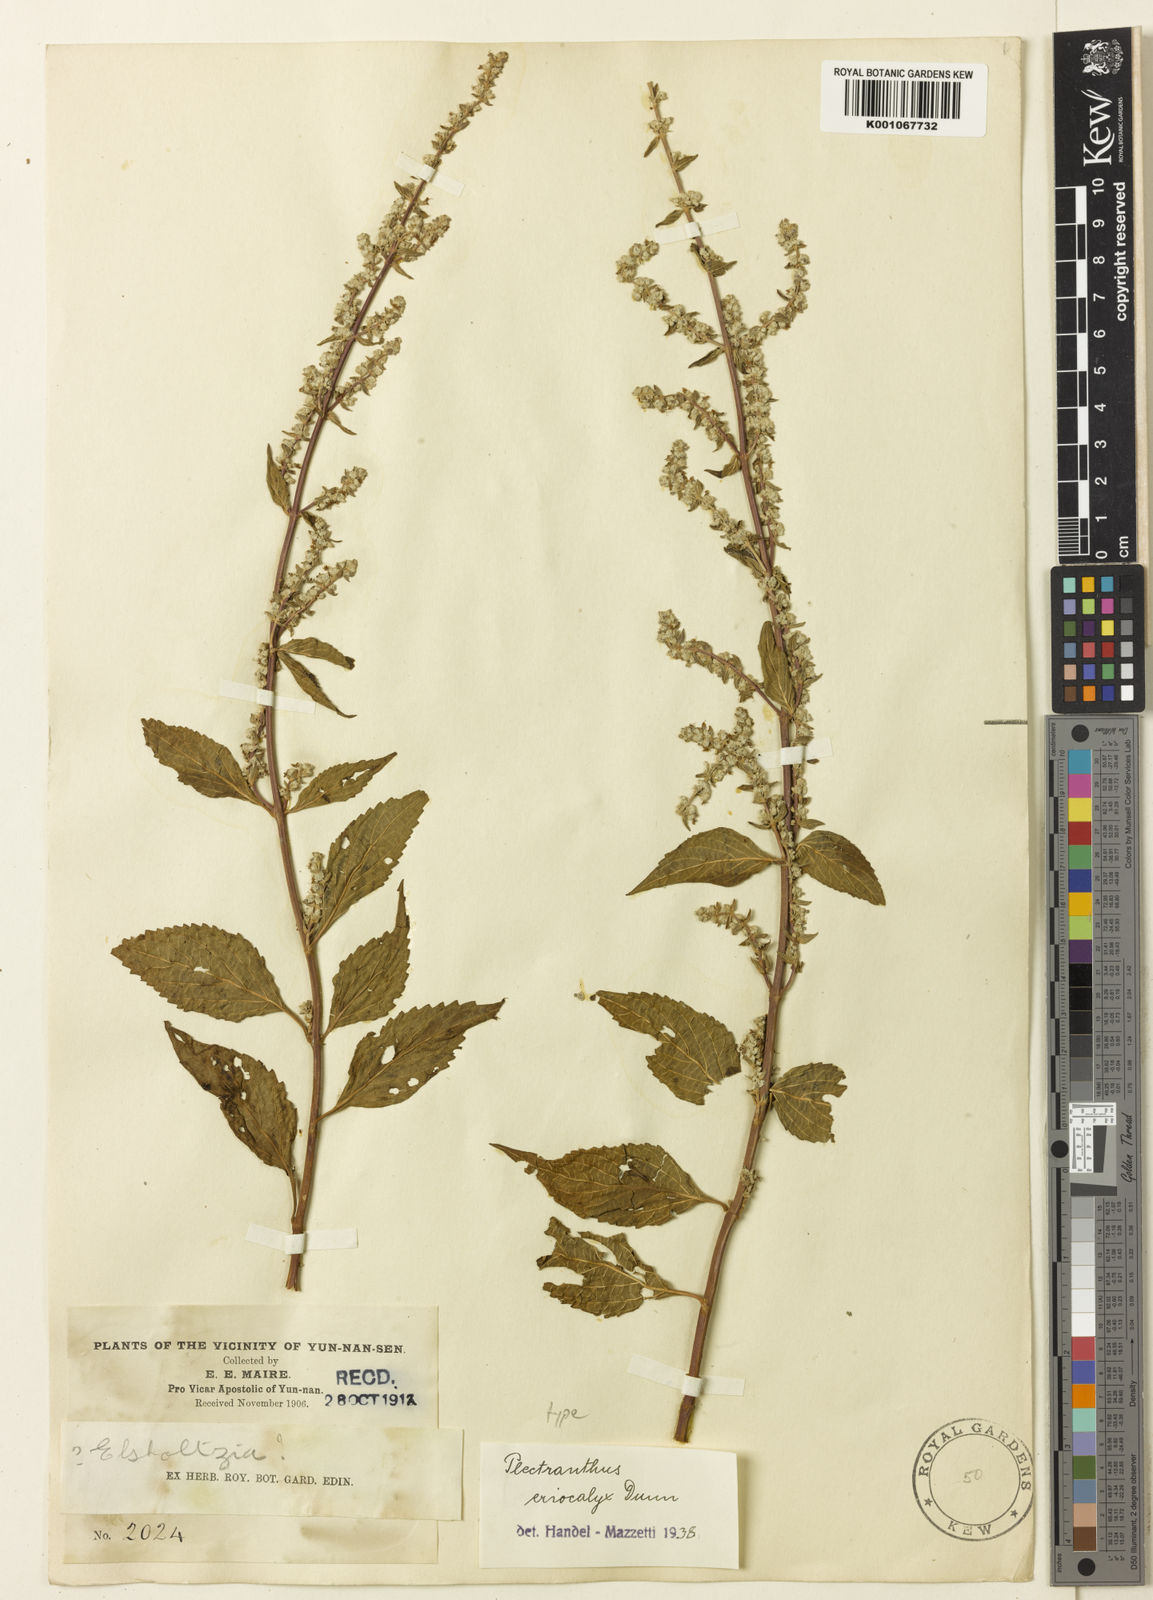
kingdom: Plantae
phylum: Tracheophyta
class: Magnoliopsida
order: Lamiales
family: Lamiaceae
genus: Isodon
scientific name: Isodon
